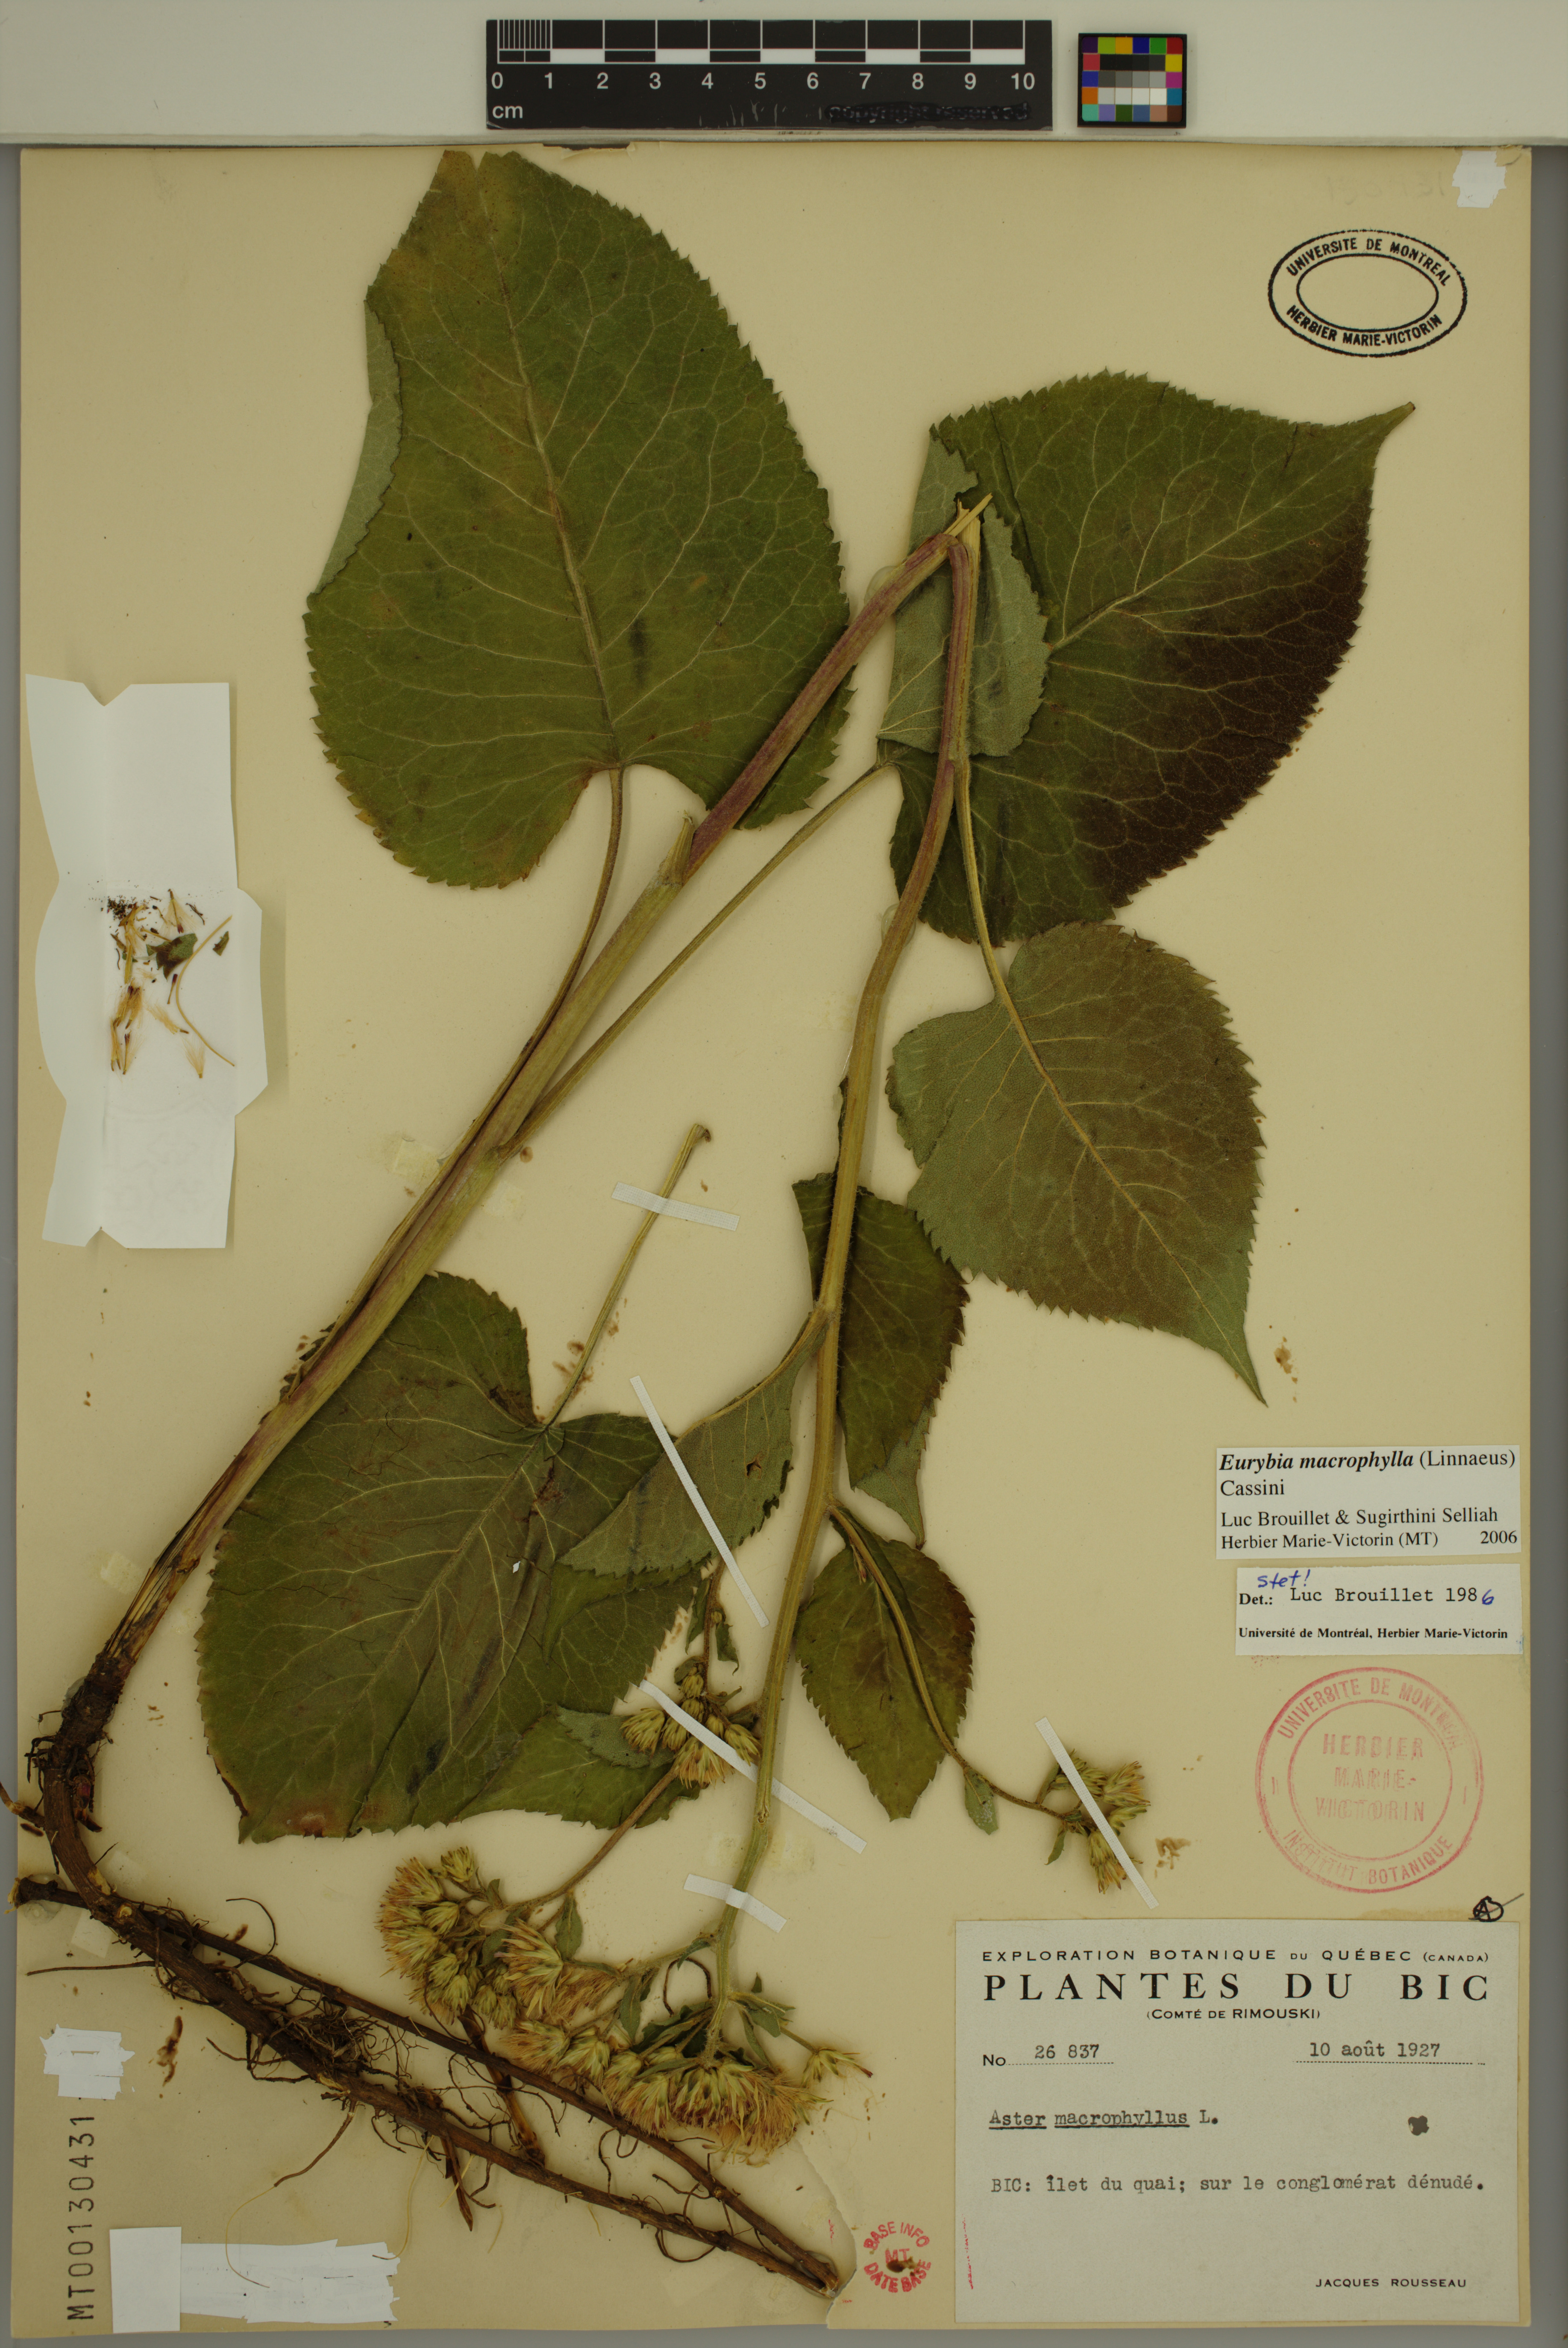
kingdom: Plantae
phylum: Tracheophyta
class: Magnoliopsida
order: Asterales
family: Asteraceae
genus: Eurybia
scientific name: Eurybia macrophylla
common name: Big-leaved aster
